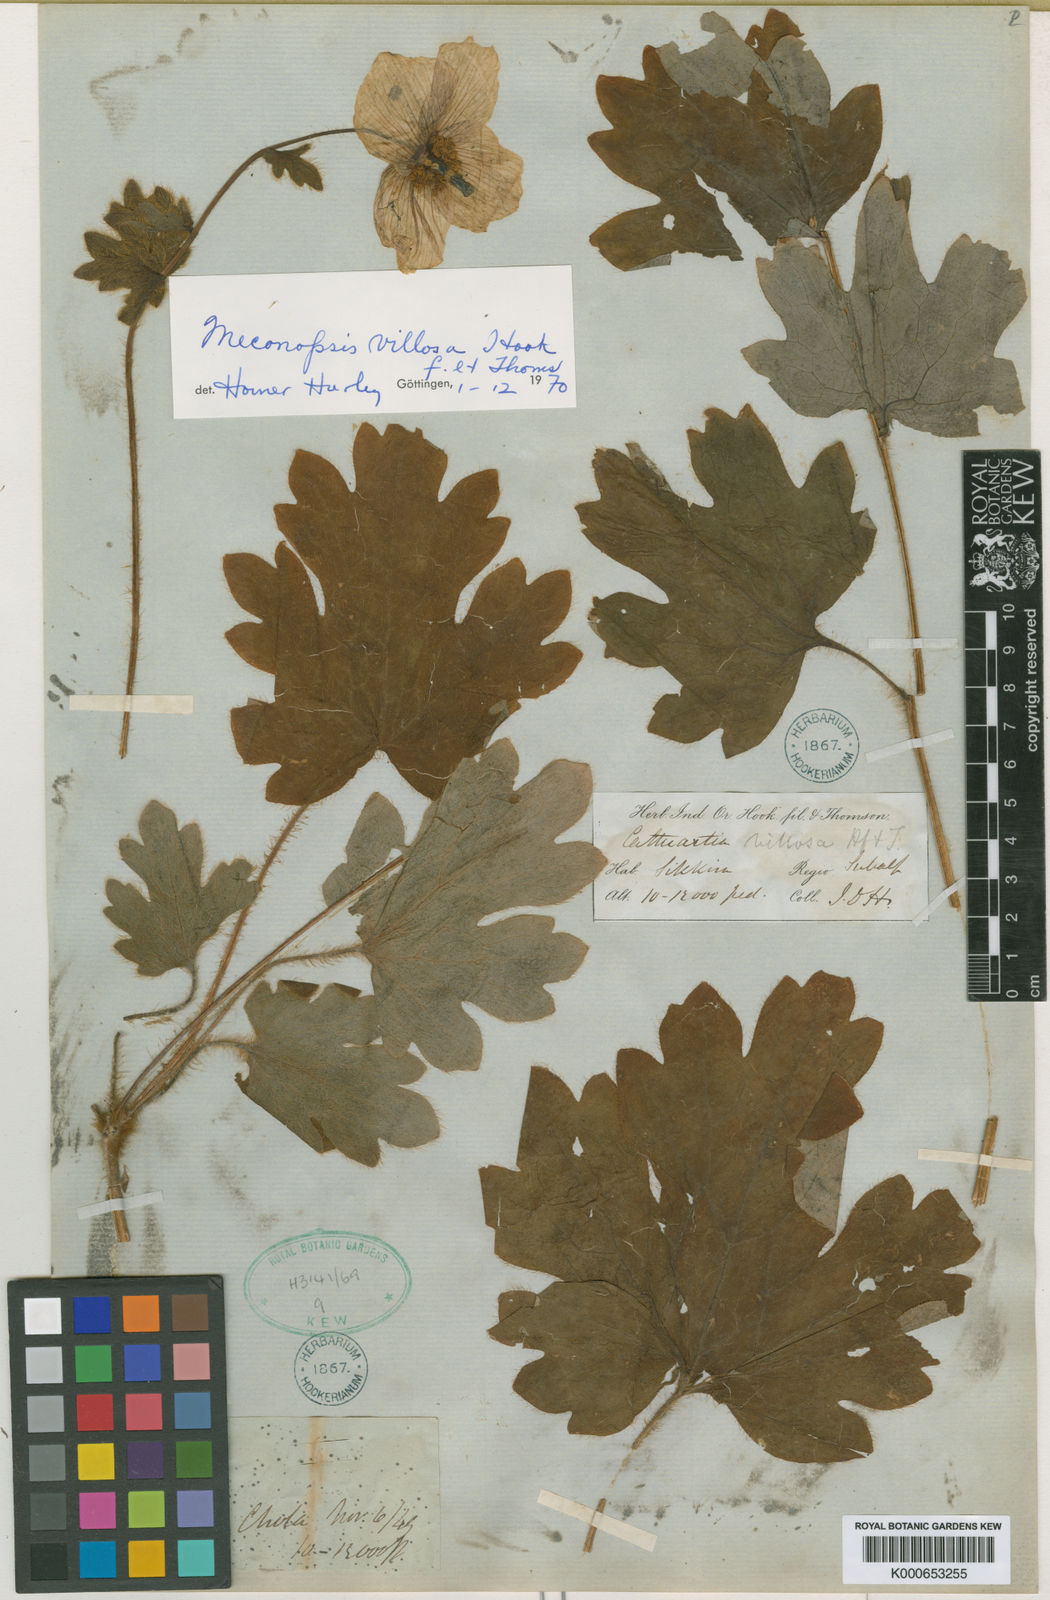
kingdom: Plantae
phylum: Tracheophyta
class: Magnoliopsida
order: Ranunculales
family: Papaveraceae
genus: Cathcartia
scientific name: Cathcartia villosa
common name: Himalayan woodland-poppy
